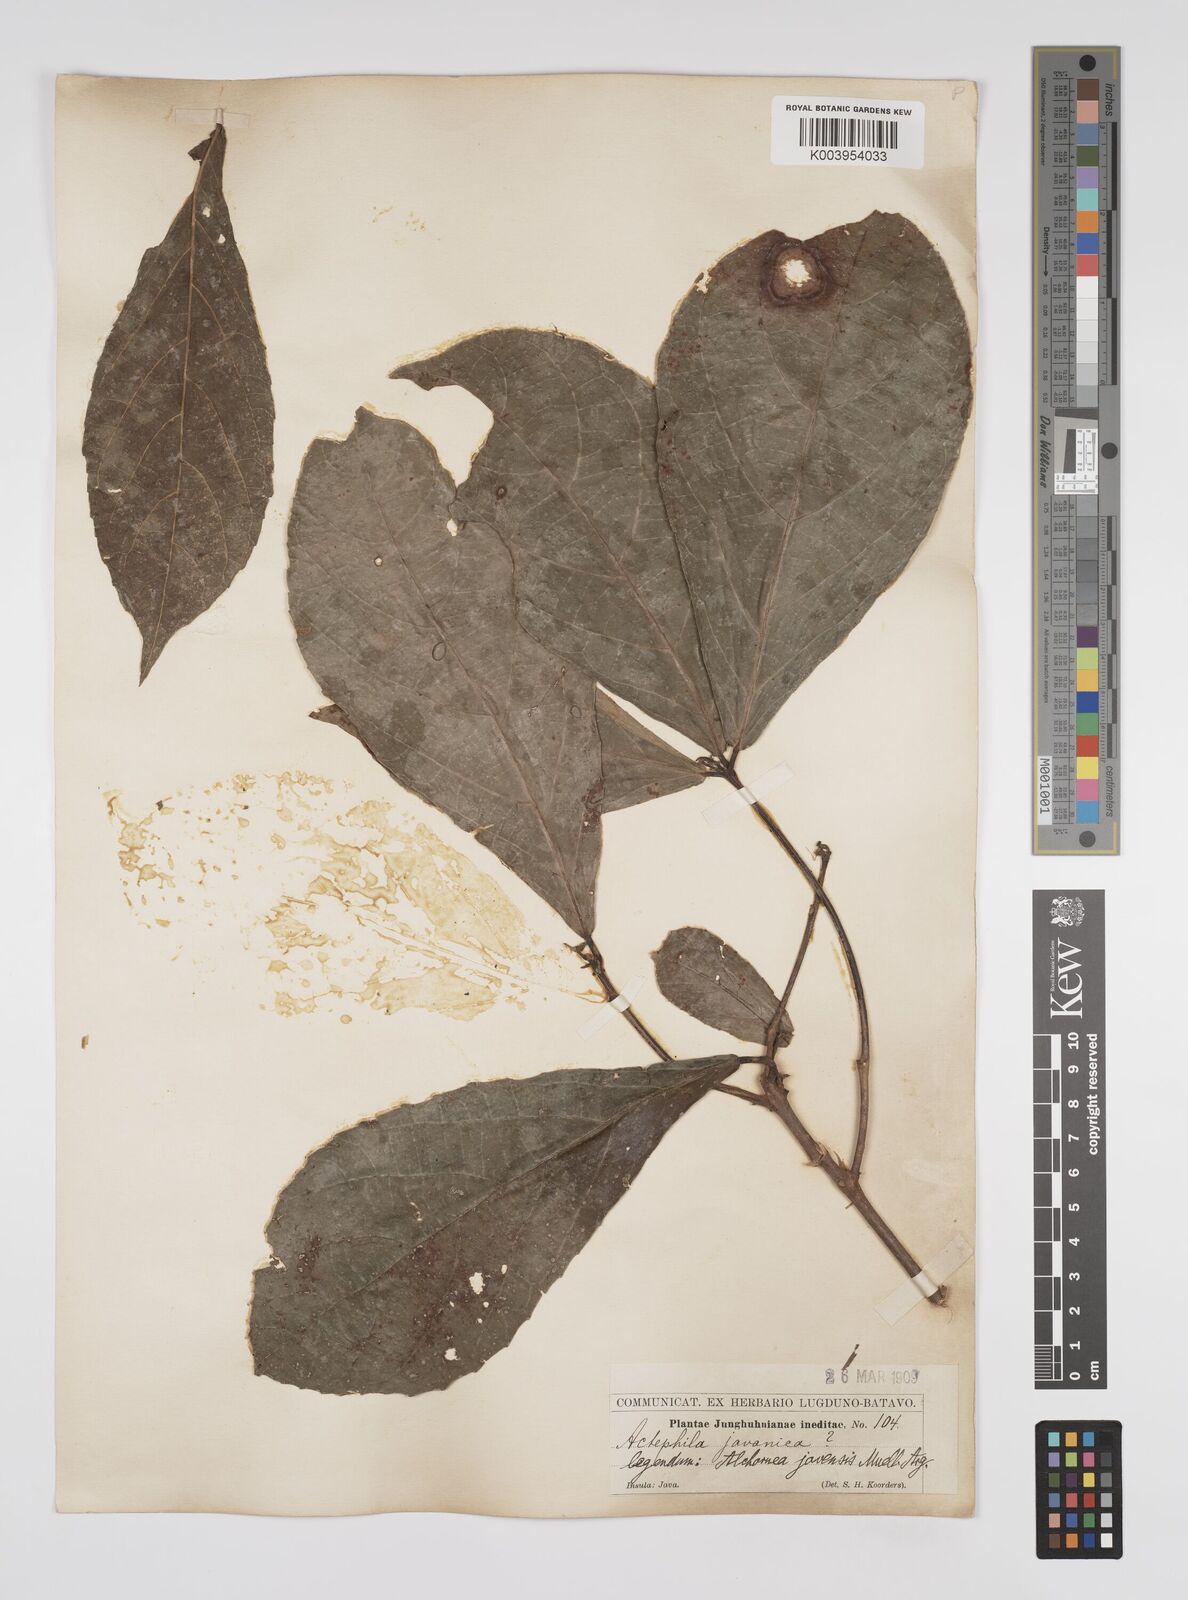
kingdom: Plantae
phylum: Tracheophyta
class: Magnoliopsida
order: Malpighiales
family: Euphorbiaceae
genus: Alchornea
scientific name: Alchornea rugosa
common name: Alchorntree
